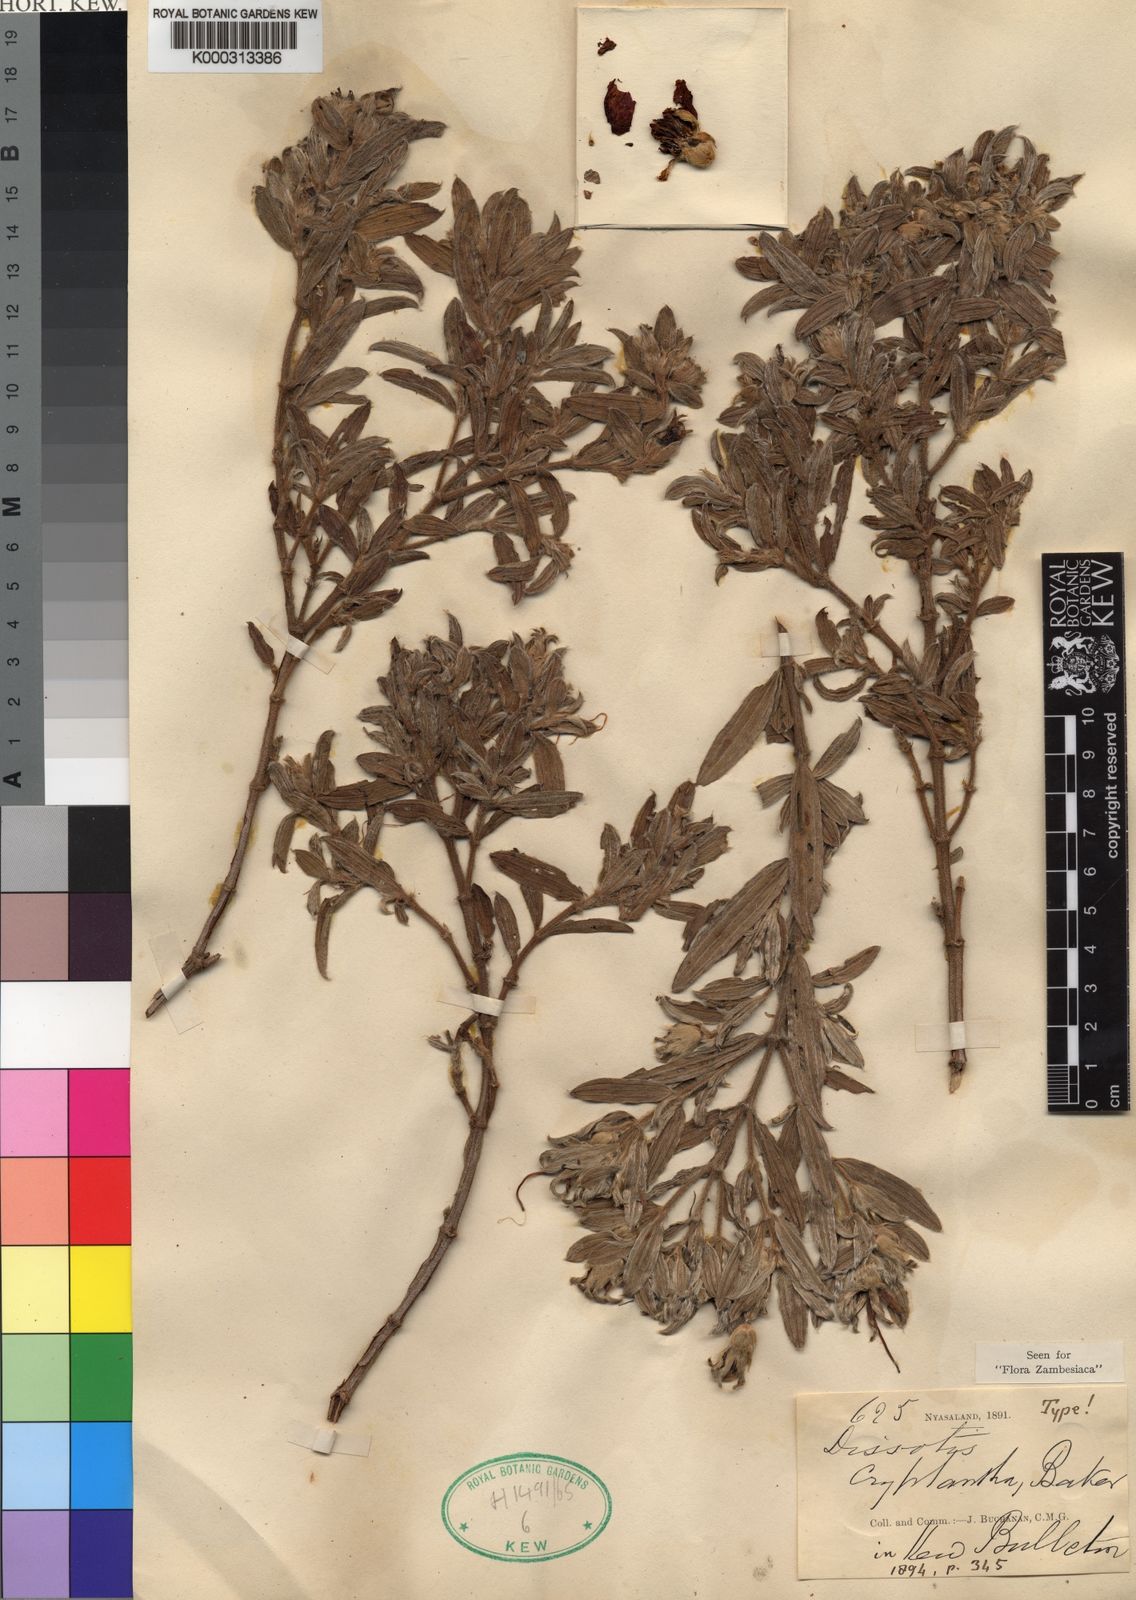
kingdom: Plantae
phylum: Tracheophyta
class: Magnoliopsida
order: Myrtales
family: Melastomataceae
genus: Feliciotis
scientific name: Feliciotis cryptantha
